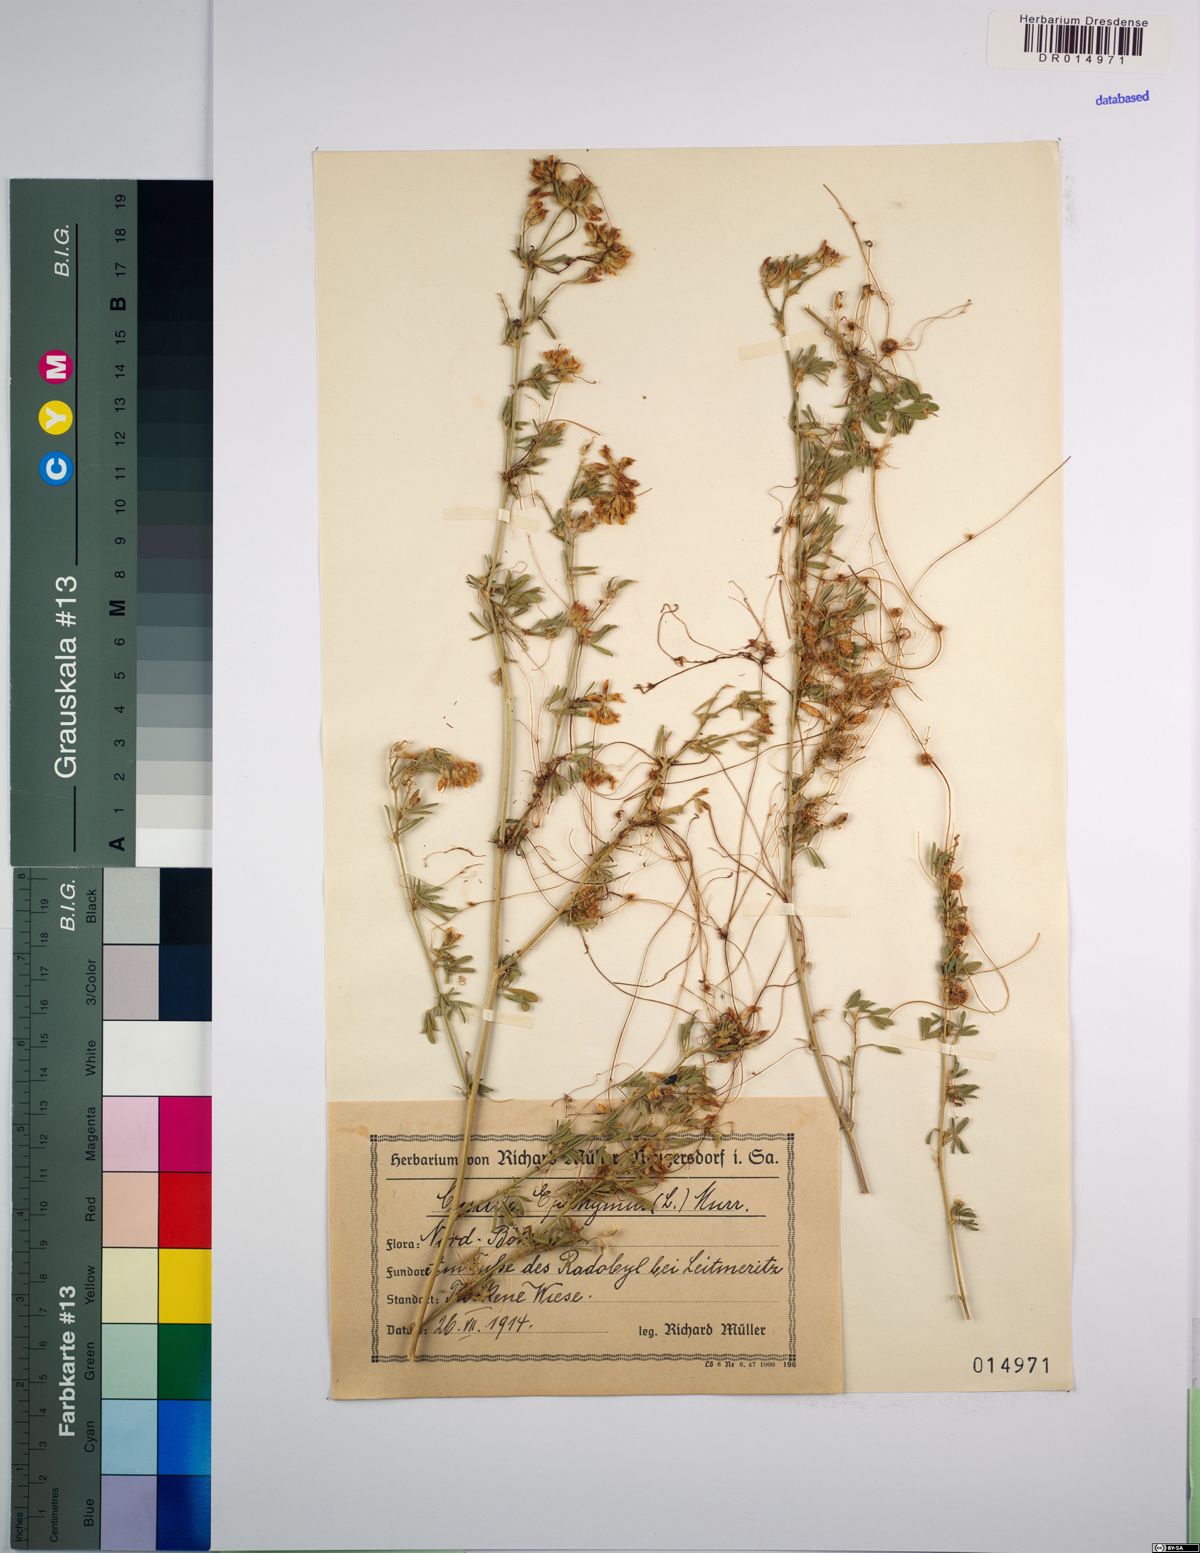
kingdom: Plantae
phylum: Tracheophyta
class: Magnoliopsida
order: Solanales
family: Convolvulaceae
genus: Cuscuta
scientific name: Cuscuta epithymum
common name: Clover dodder
